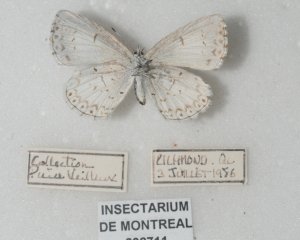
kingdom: Animalia
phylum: Arthropoda
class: Insecta
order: Lepidoptera
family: Lycaenidae
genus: Cyaniris
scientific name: Cyaniris neglecta
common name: Summer Azure
